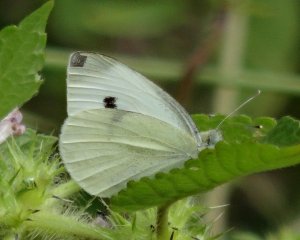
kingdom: Animalia
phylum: Arthropoda
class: Insecta
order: Lepidoptera
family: Pieridae
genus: Pieris
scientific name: Pieris rapae
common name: Cabbage White
